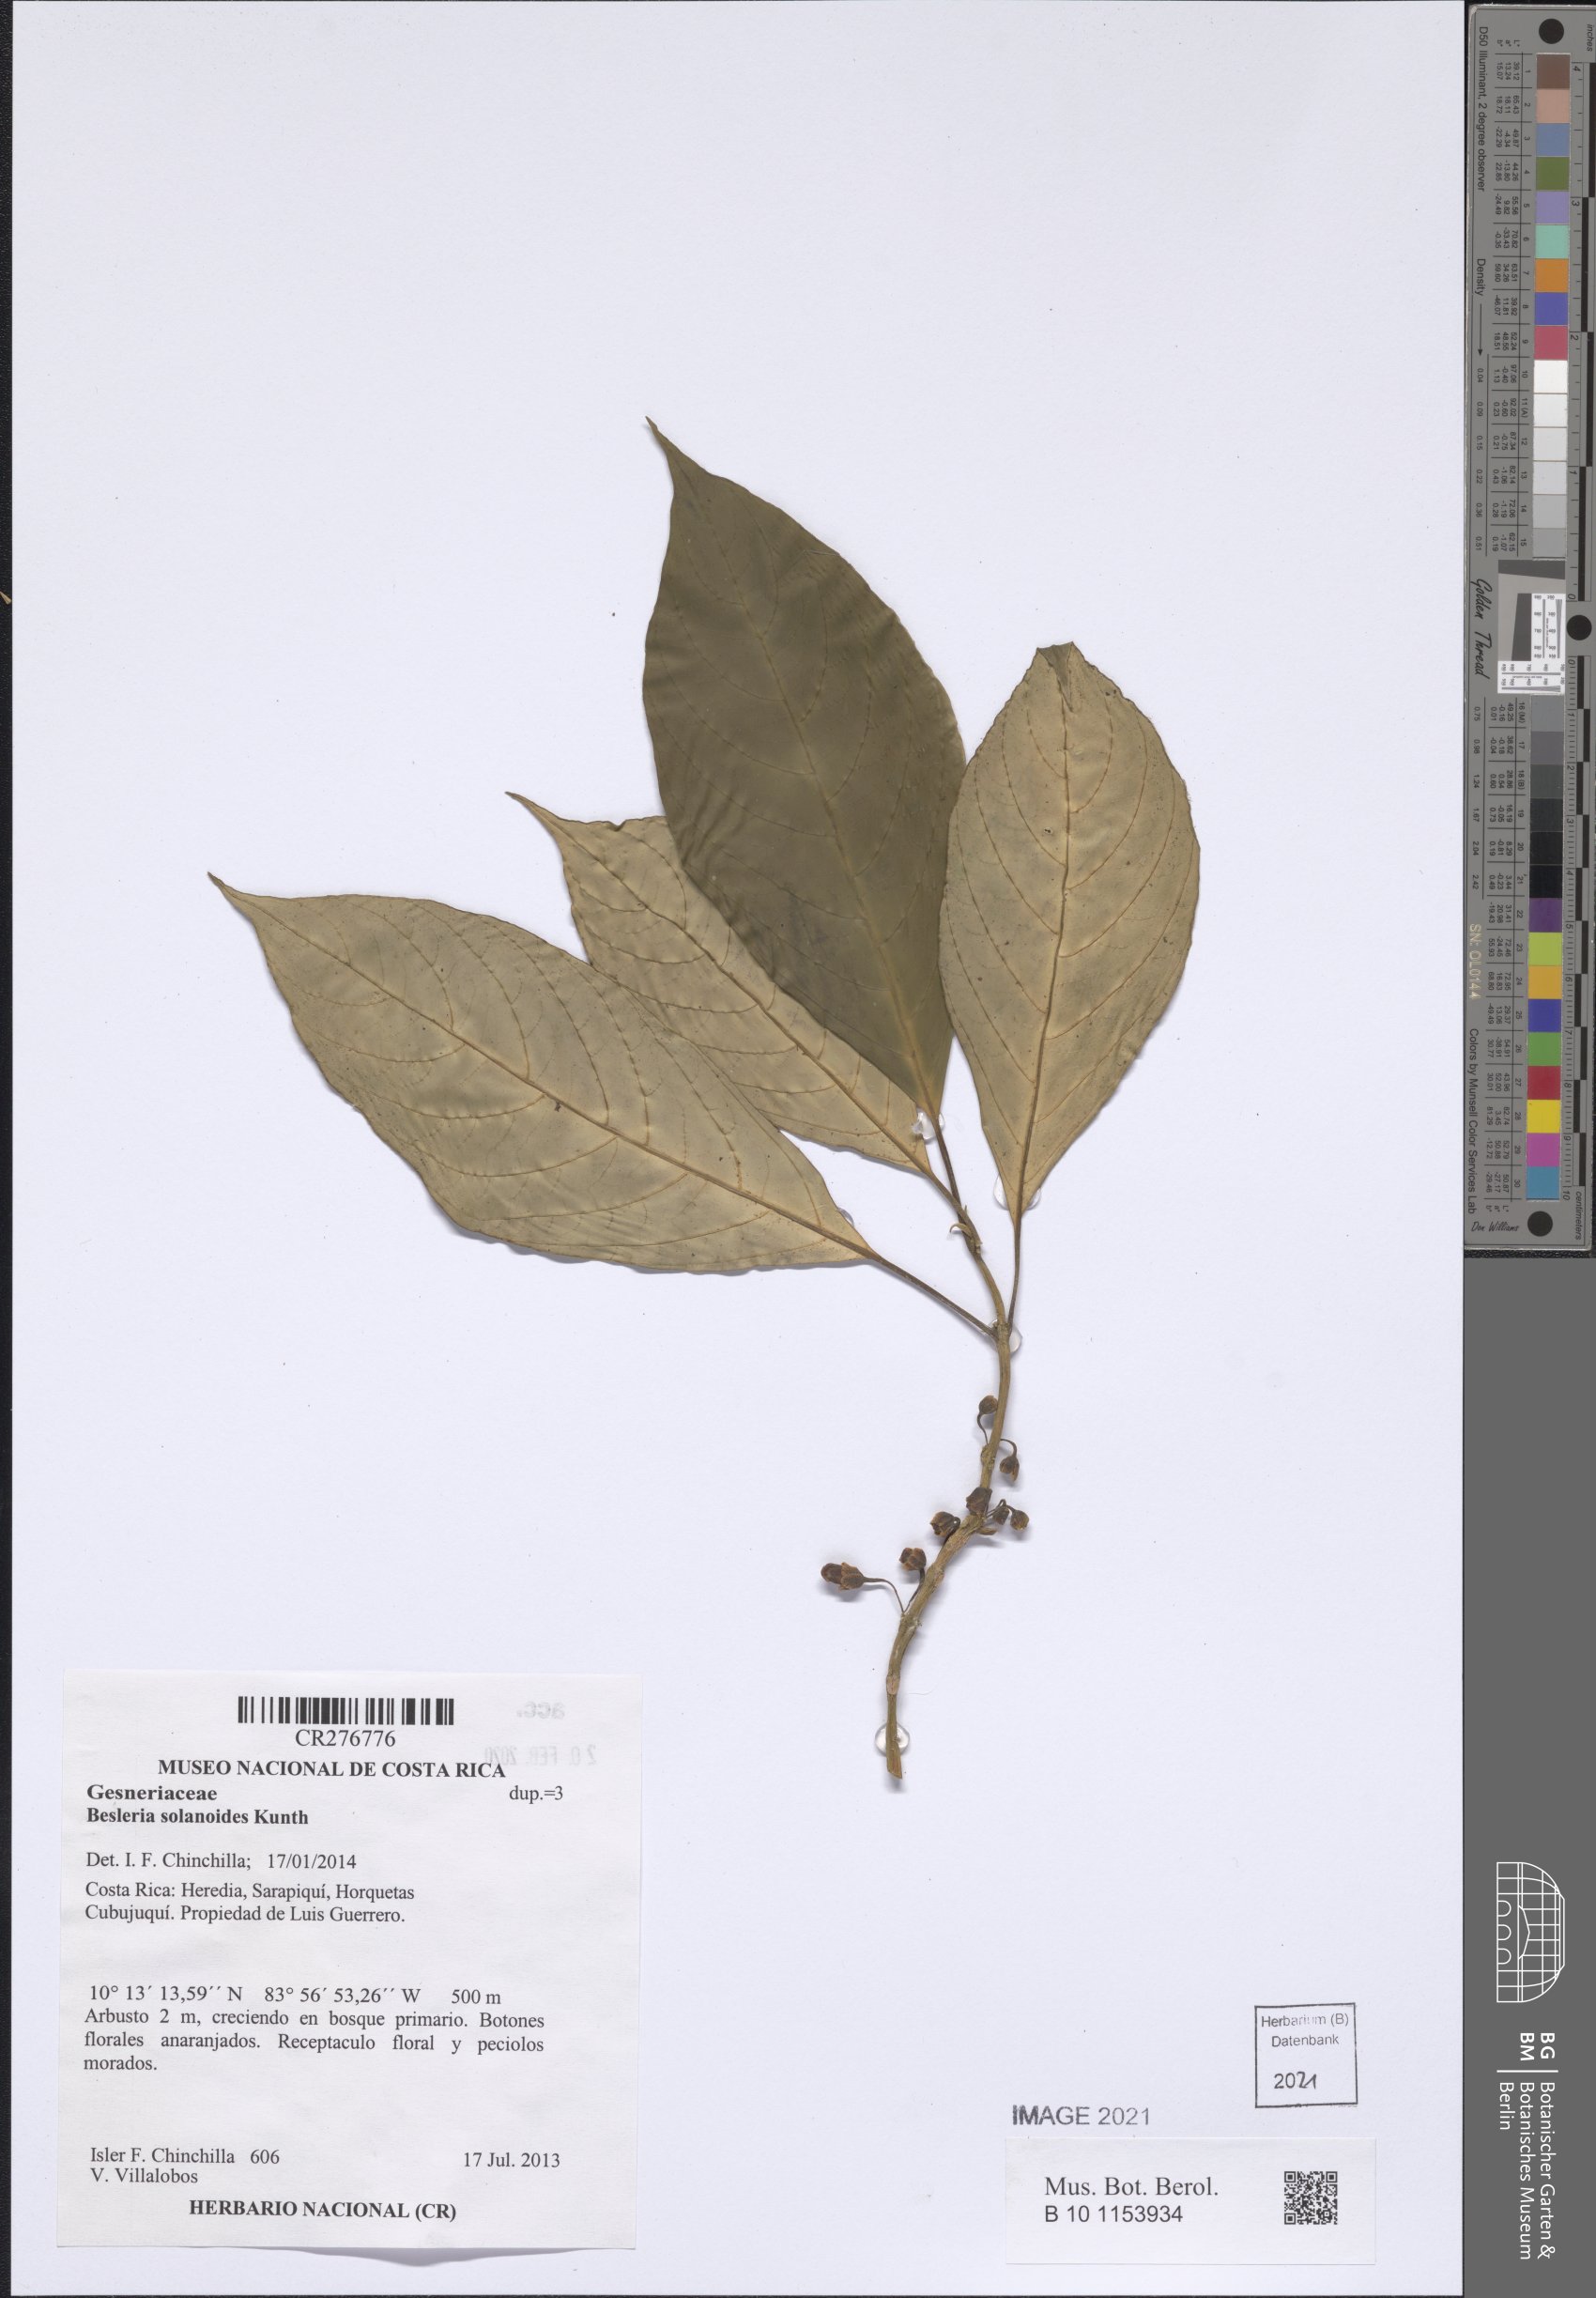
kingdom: Plantae
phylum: Tracheophyta
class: Magnoliopsida
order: Lamiales
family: Gesneriaceae
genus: Besleria
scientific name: Besleria solanoides
